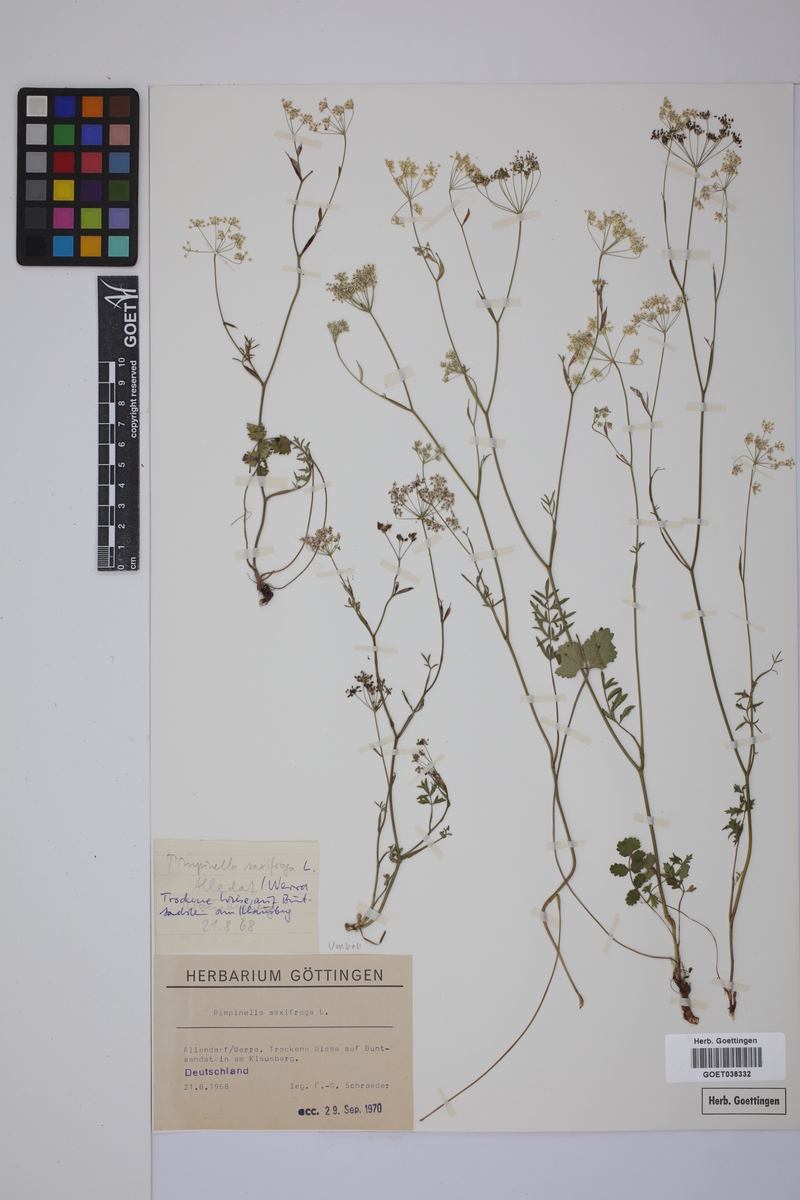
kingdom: Plantae
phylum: Tracheophyta
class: Magnoliopsida
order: Apiales
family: Apiaceae
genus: Pimpinella
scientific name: Pimpinella saxifraga
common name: Burnet-saxifrage
